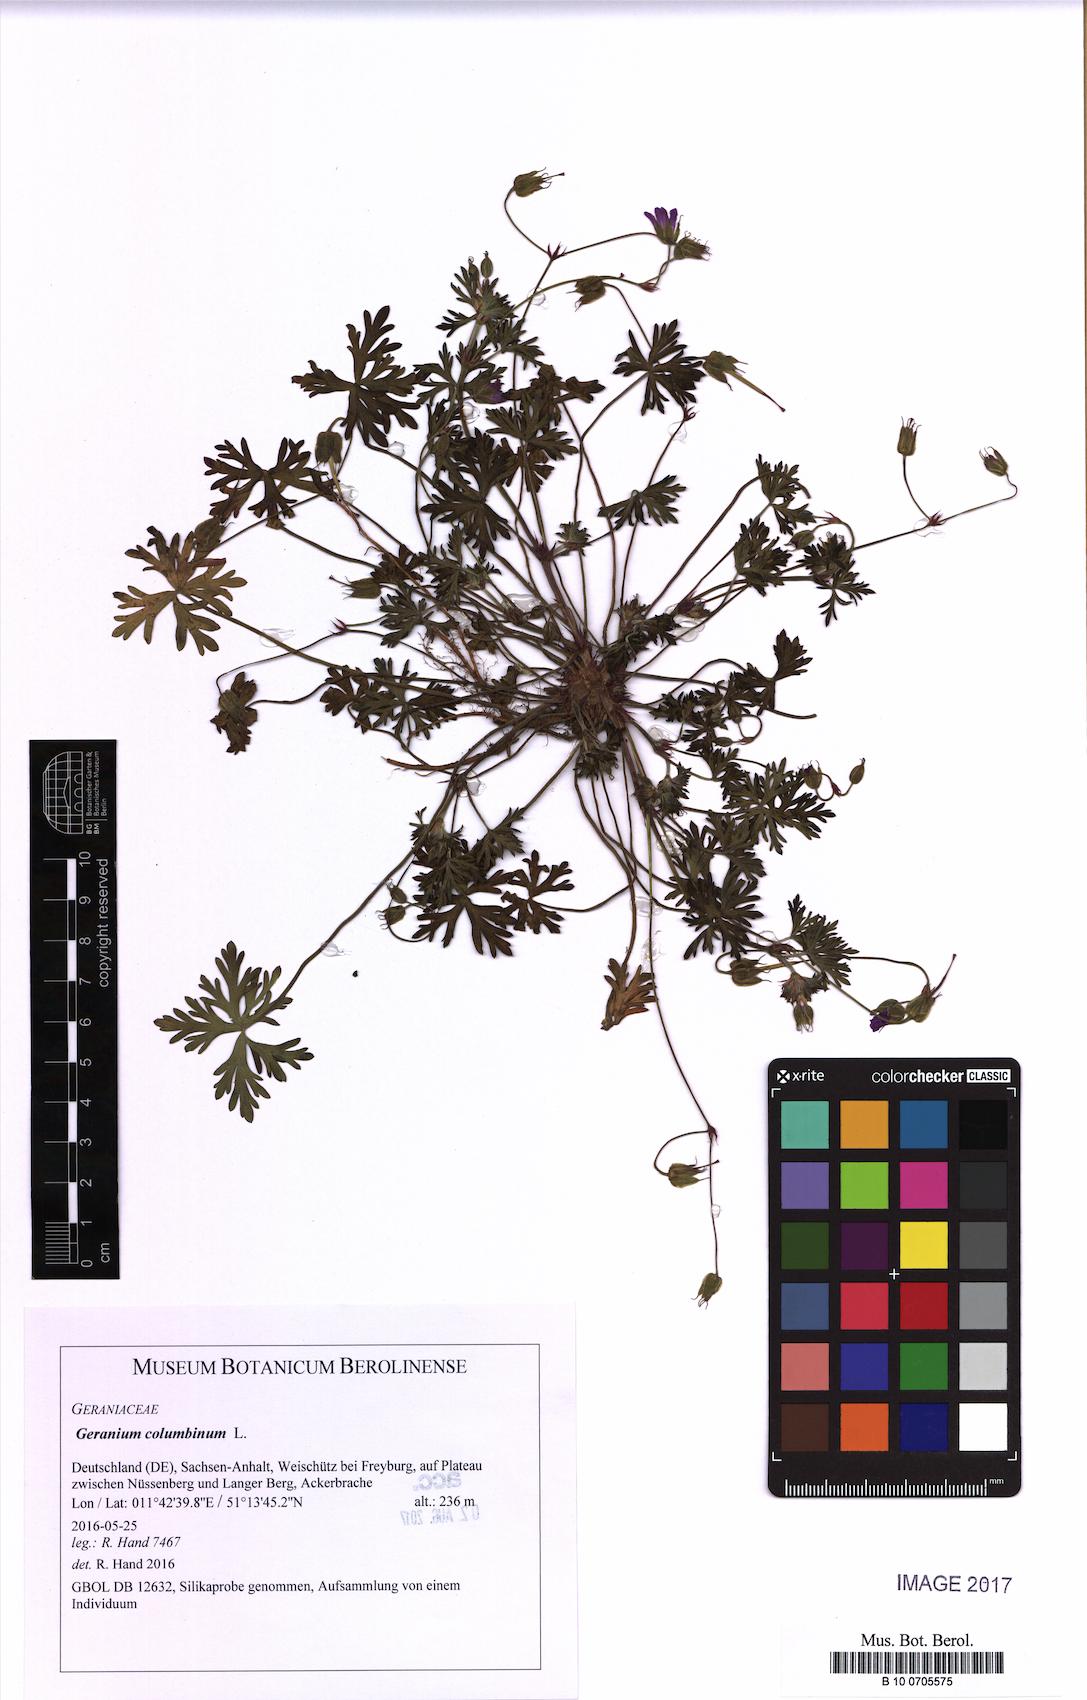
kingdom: Plantae
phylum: Tracheophyta
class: Magnoliopsida
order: Geraniales
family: Geraniaceae
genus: Geranium
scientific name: Geranium columbinum
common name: Long-stalked crane's-bill
